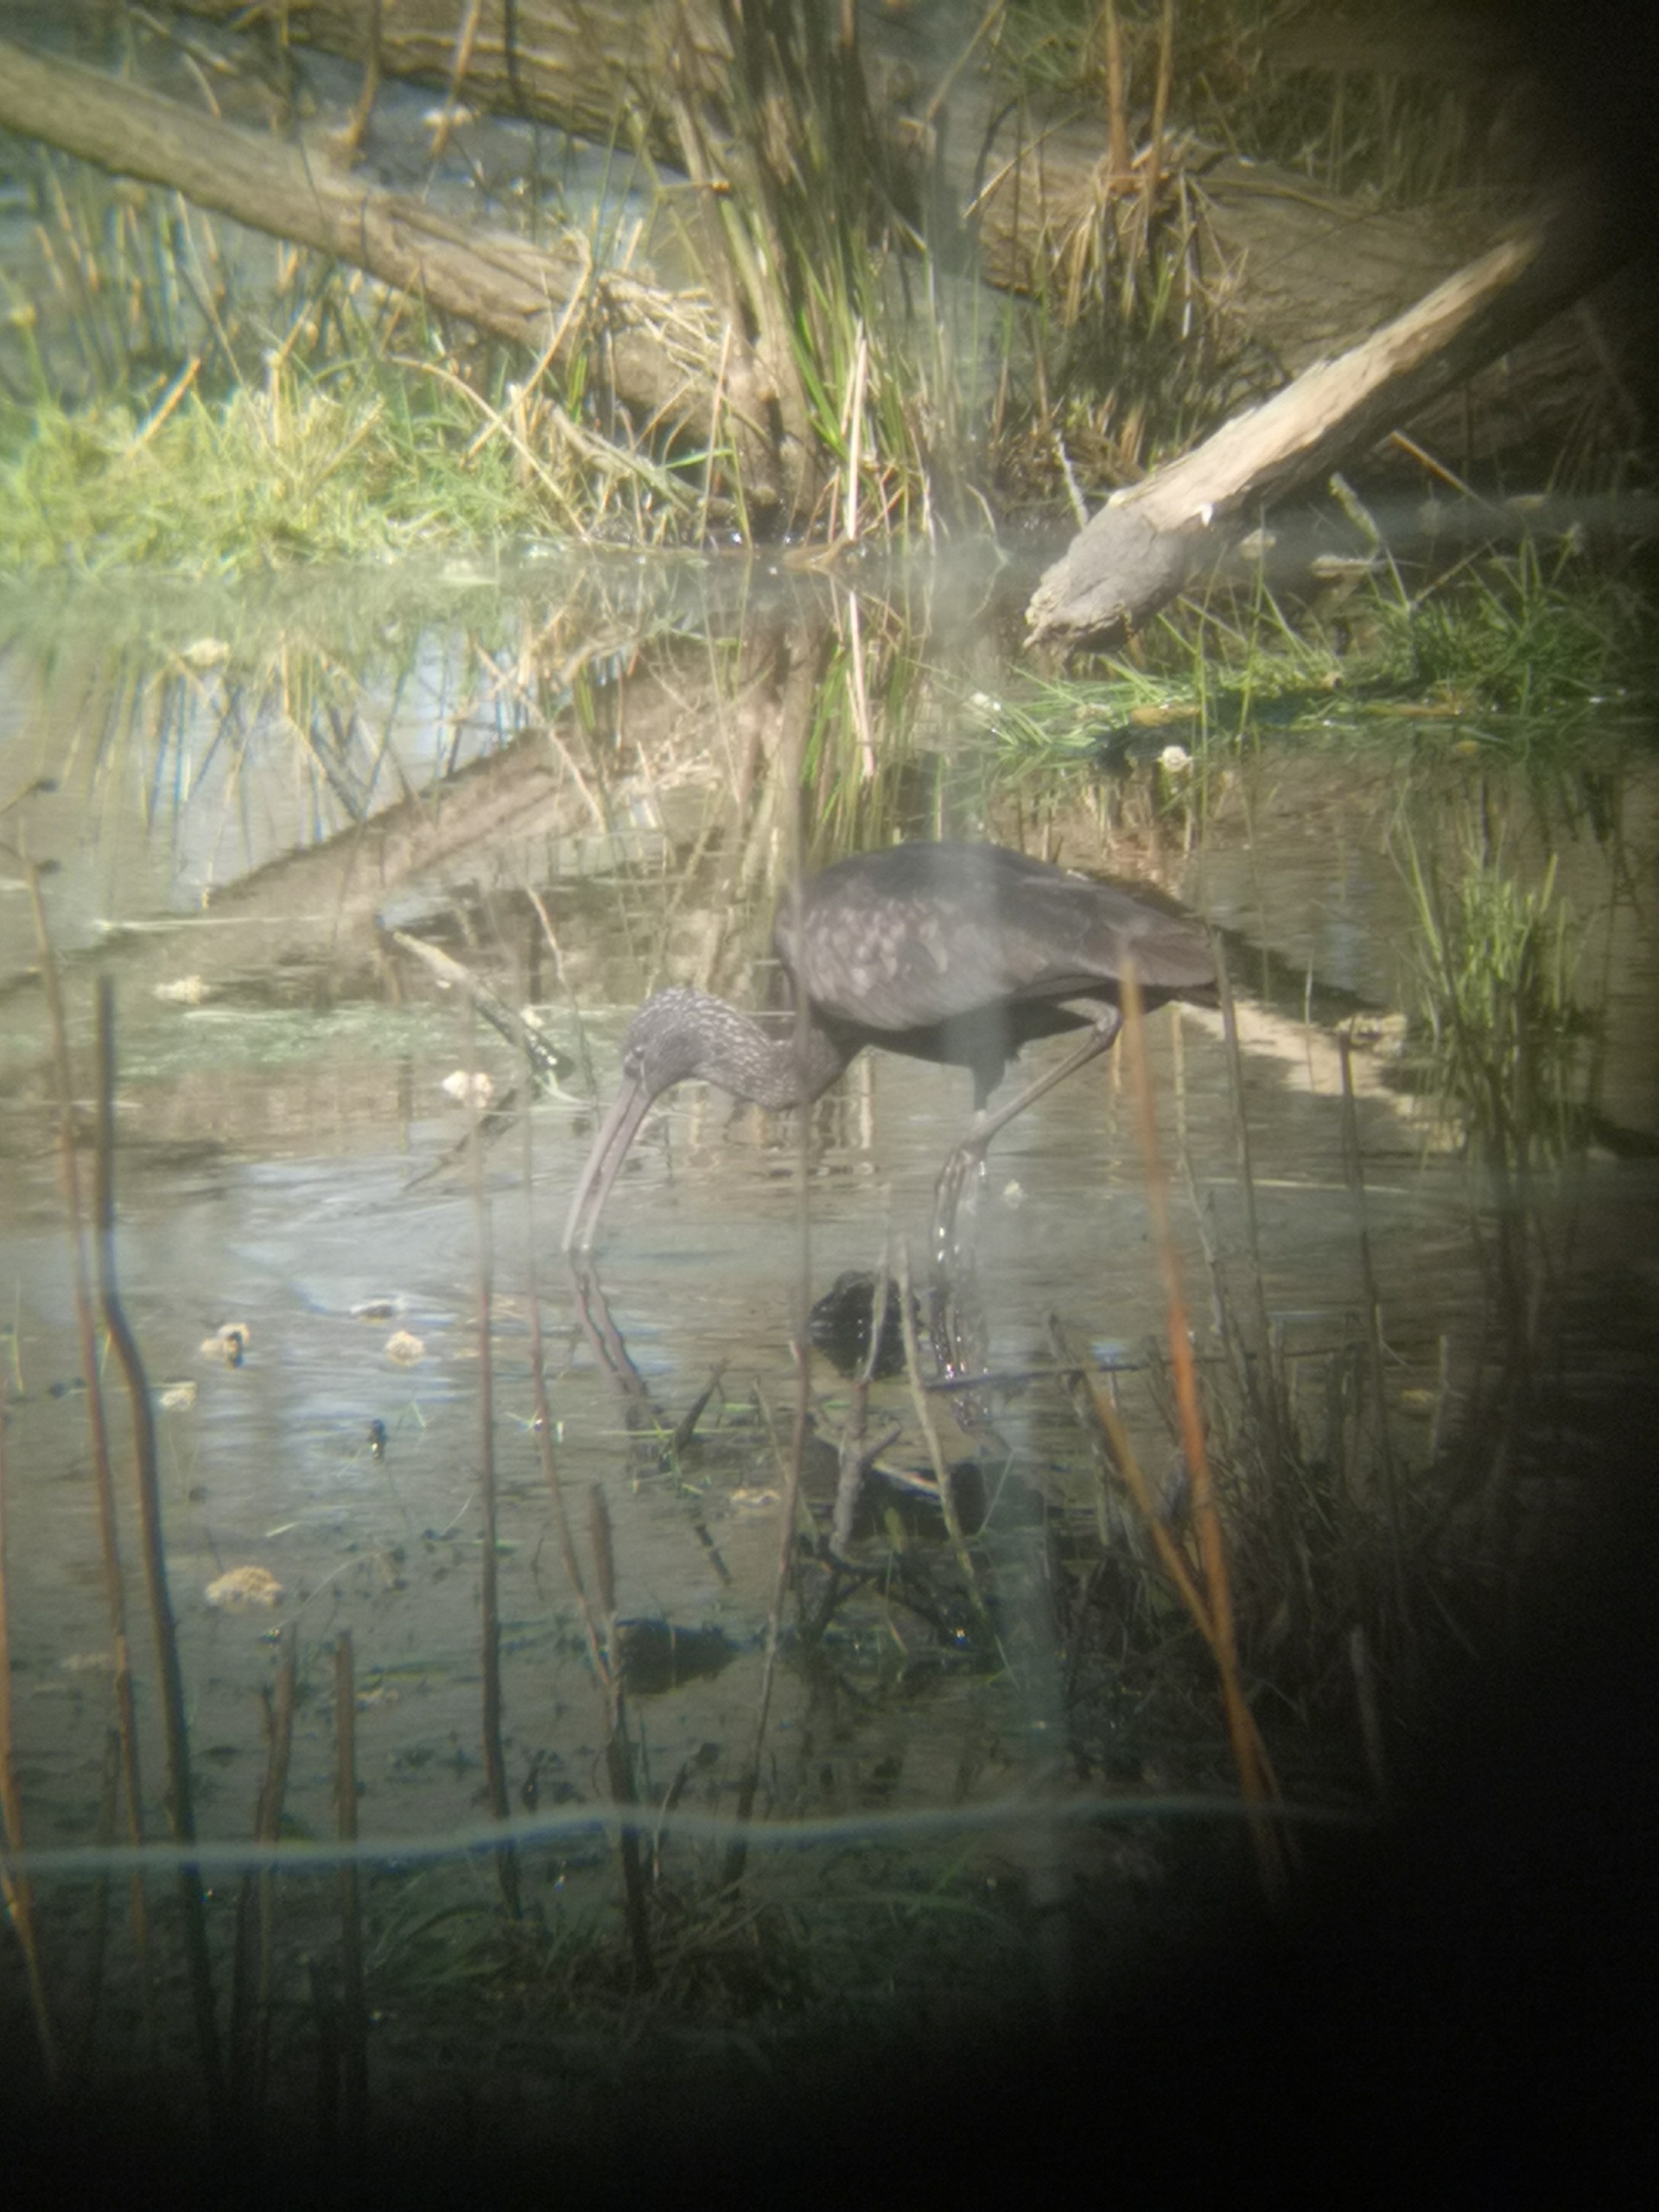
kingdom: Animalia
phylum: Chordata
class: Aves
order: Pelecaniformes
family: Threskiornithidae
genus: Plegadis
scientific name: Plegadis falcinellus
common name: Sort ibis
